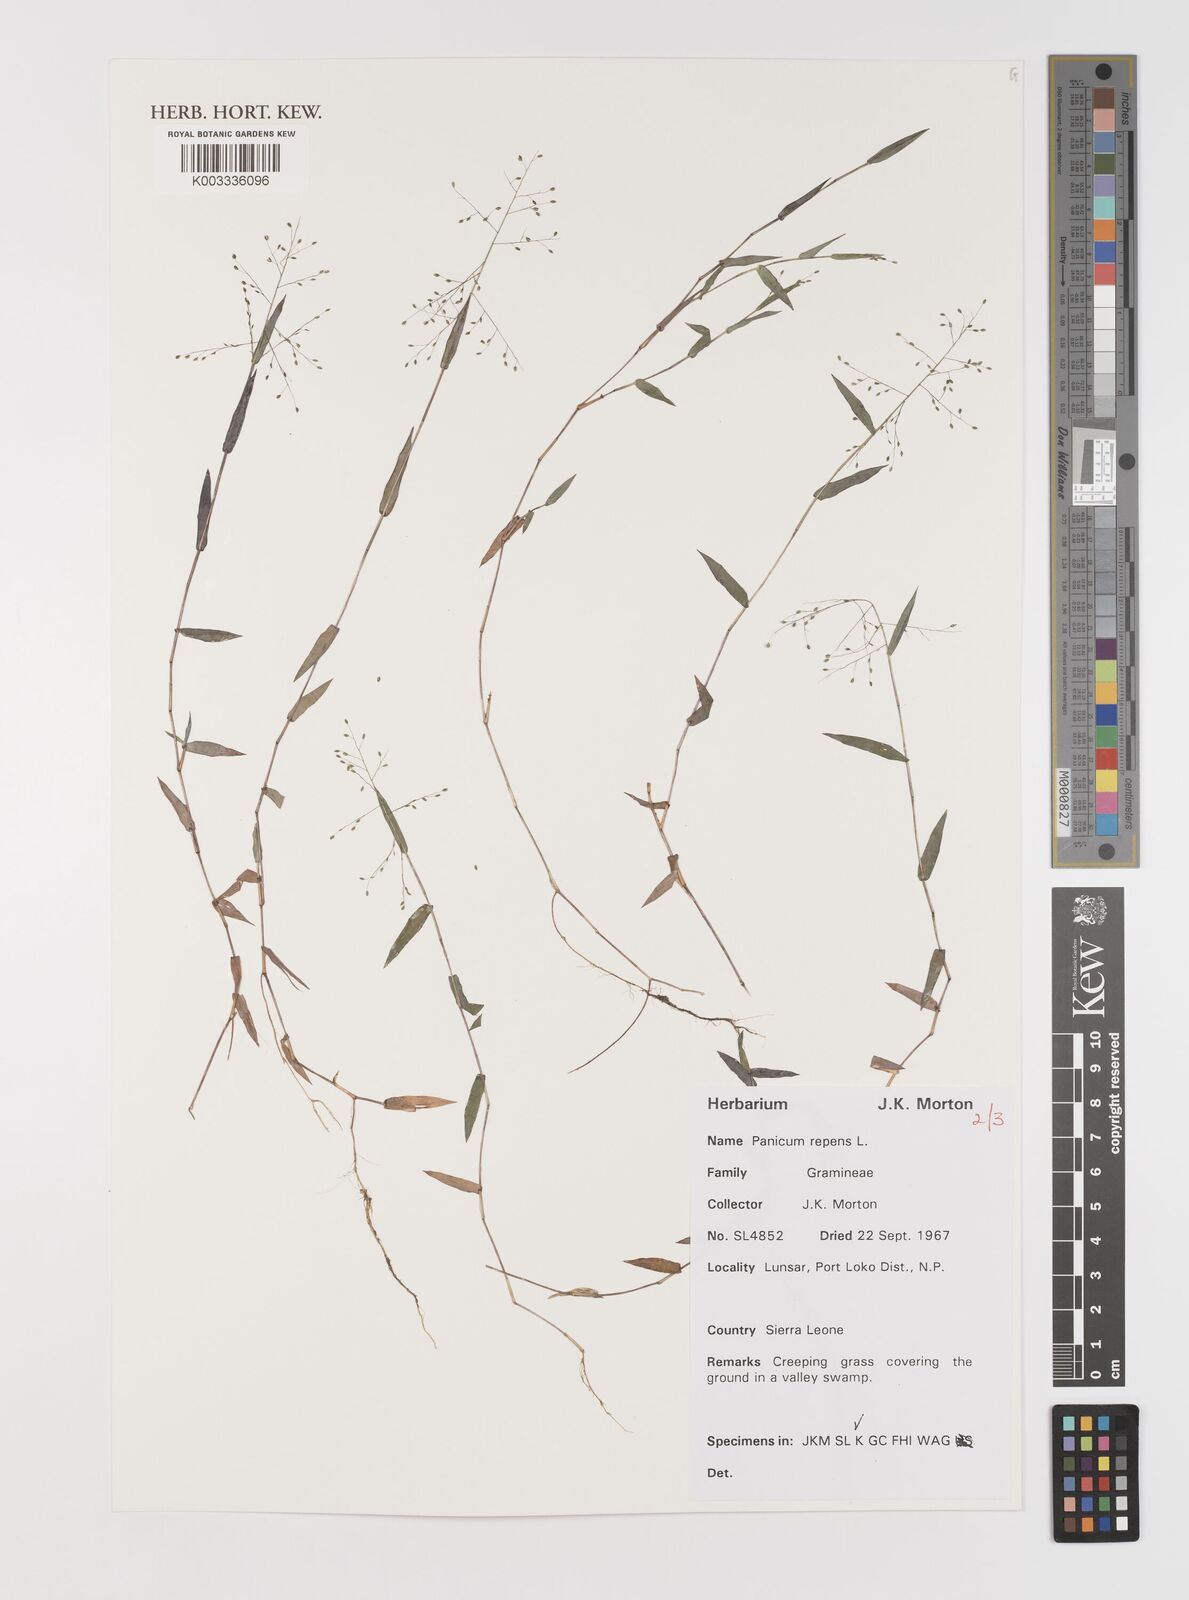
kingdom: Plantae
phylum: Tracheophyta
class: Liliopsida
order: Poales
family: Poaceae
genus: Panicum
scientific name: Panicum repens
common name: Torpedo grass
